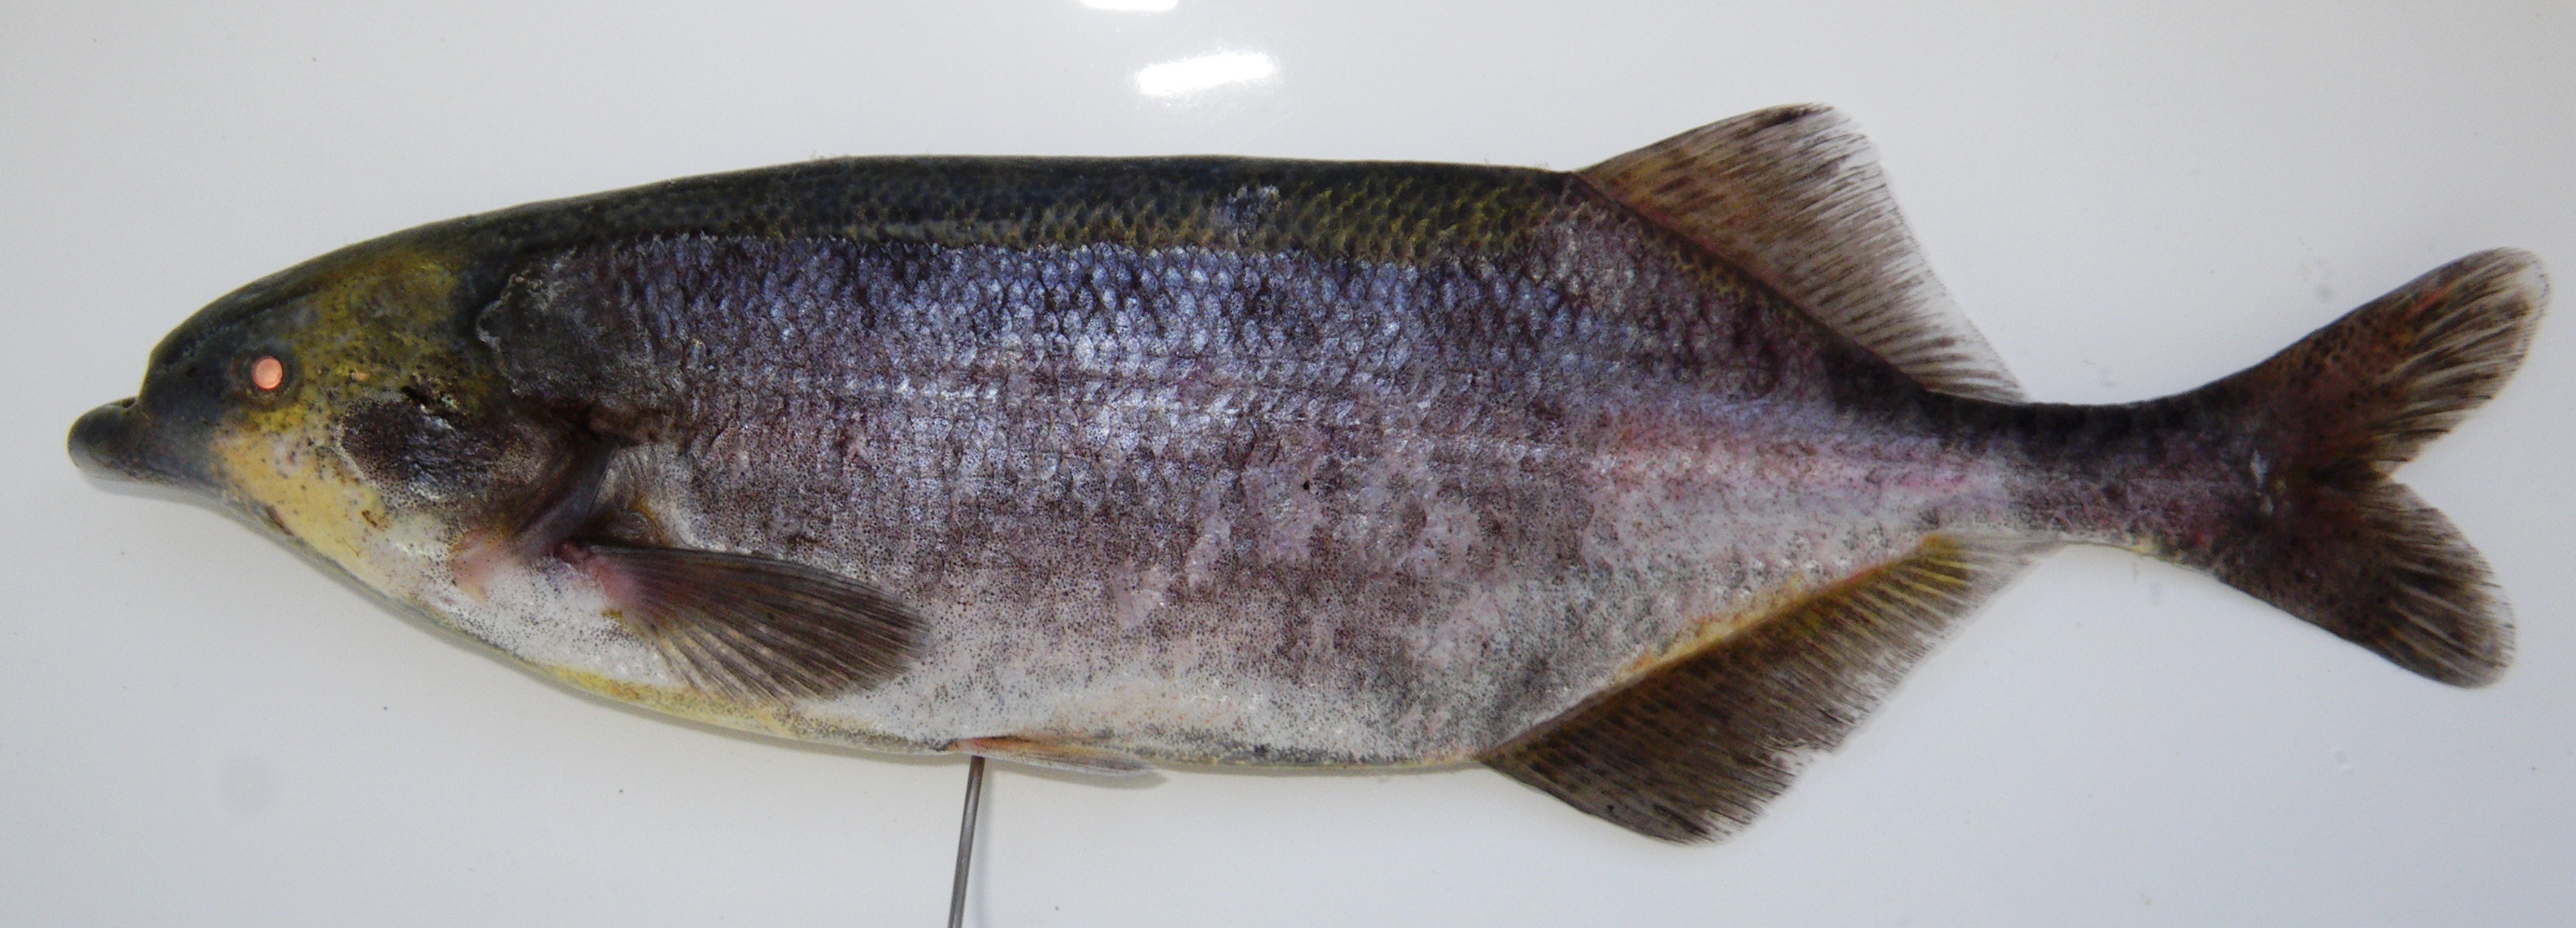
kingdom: Animalia
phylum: Chordata
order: Osteoglossiformes
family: Mormyridae
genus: Marcusenius
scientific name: Marcusenius macrolepidotus
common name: Bulldog
